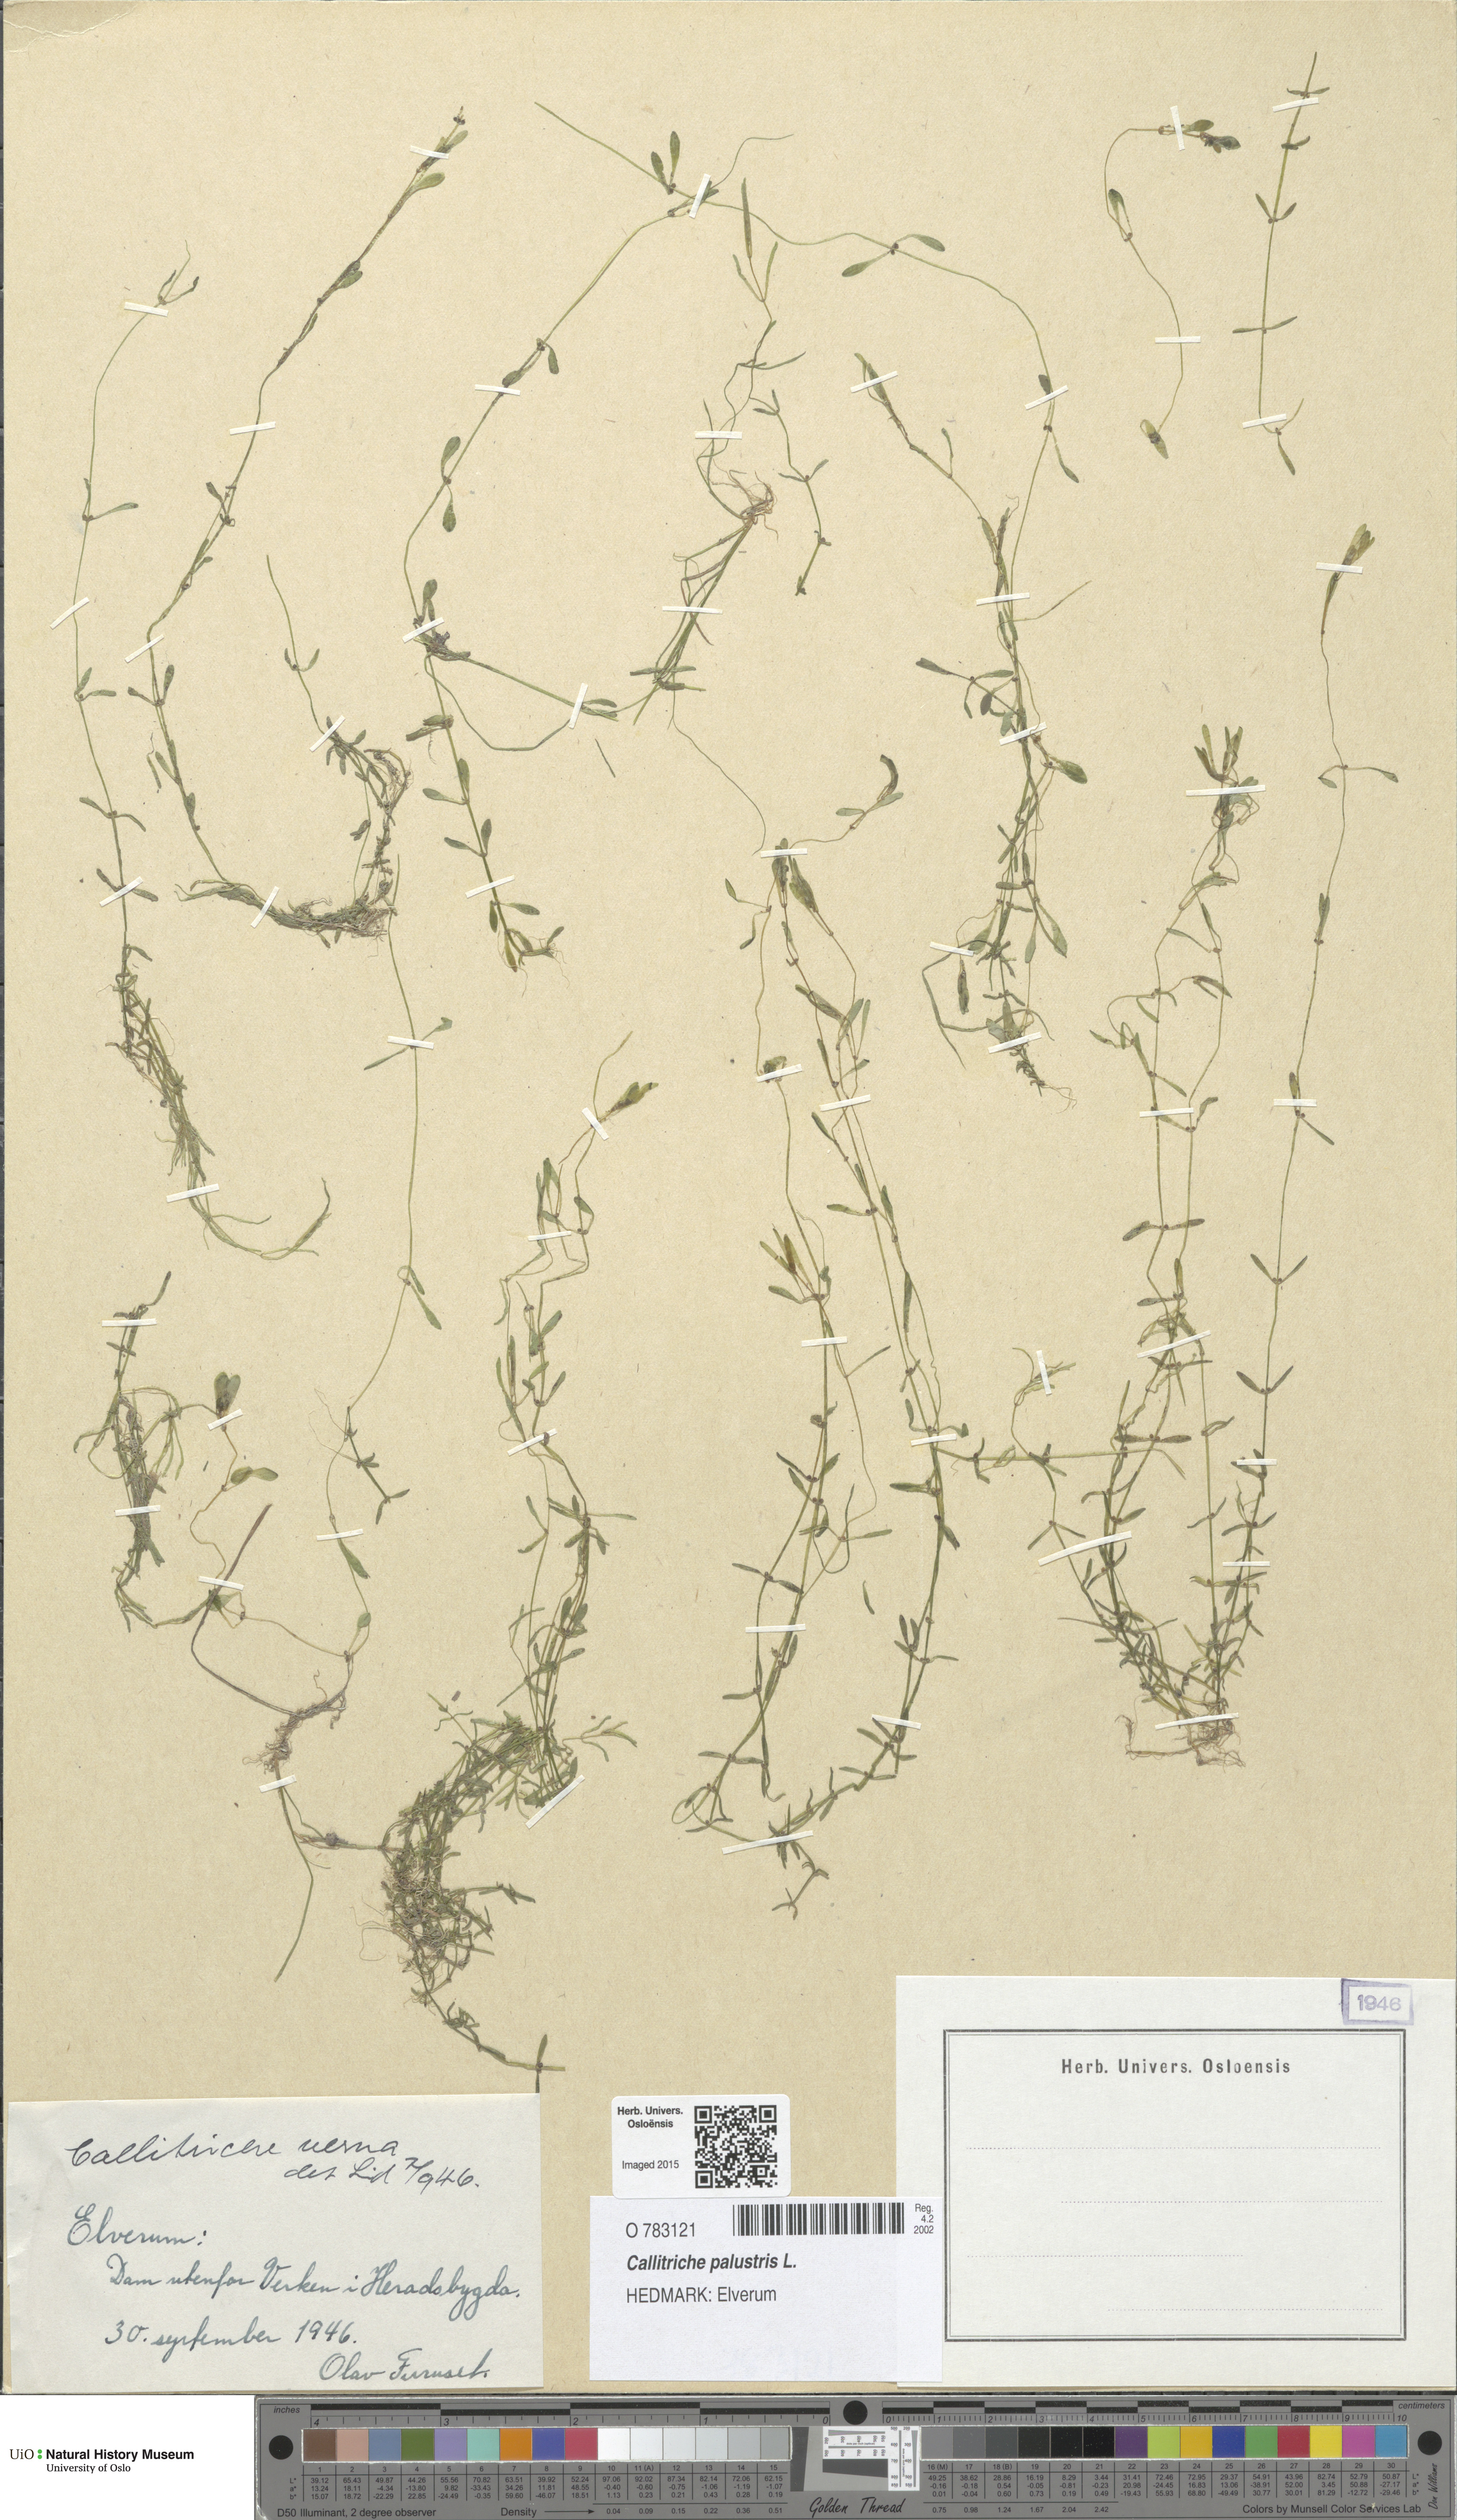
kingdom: Plantae
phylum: Tracheophyta
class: Magnoliopsida
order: Lamiales
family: Plantaginaceae
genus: Callitriche
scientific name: Callitriche palustris
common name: Spring water-starwort
